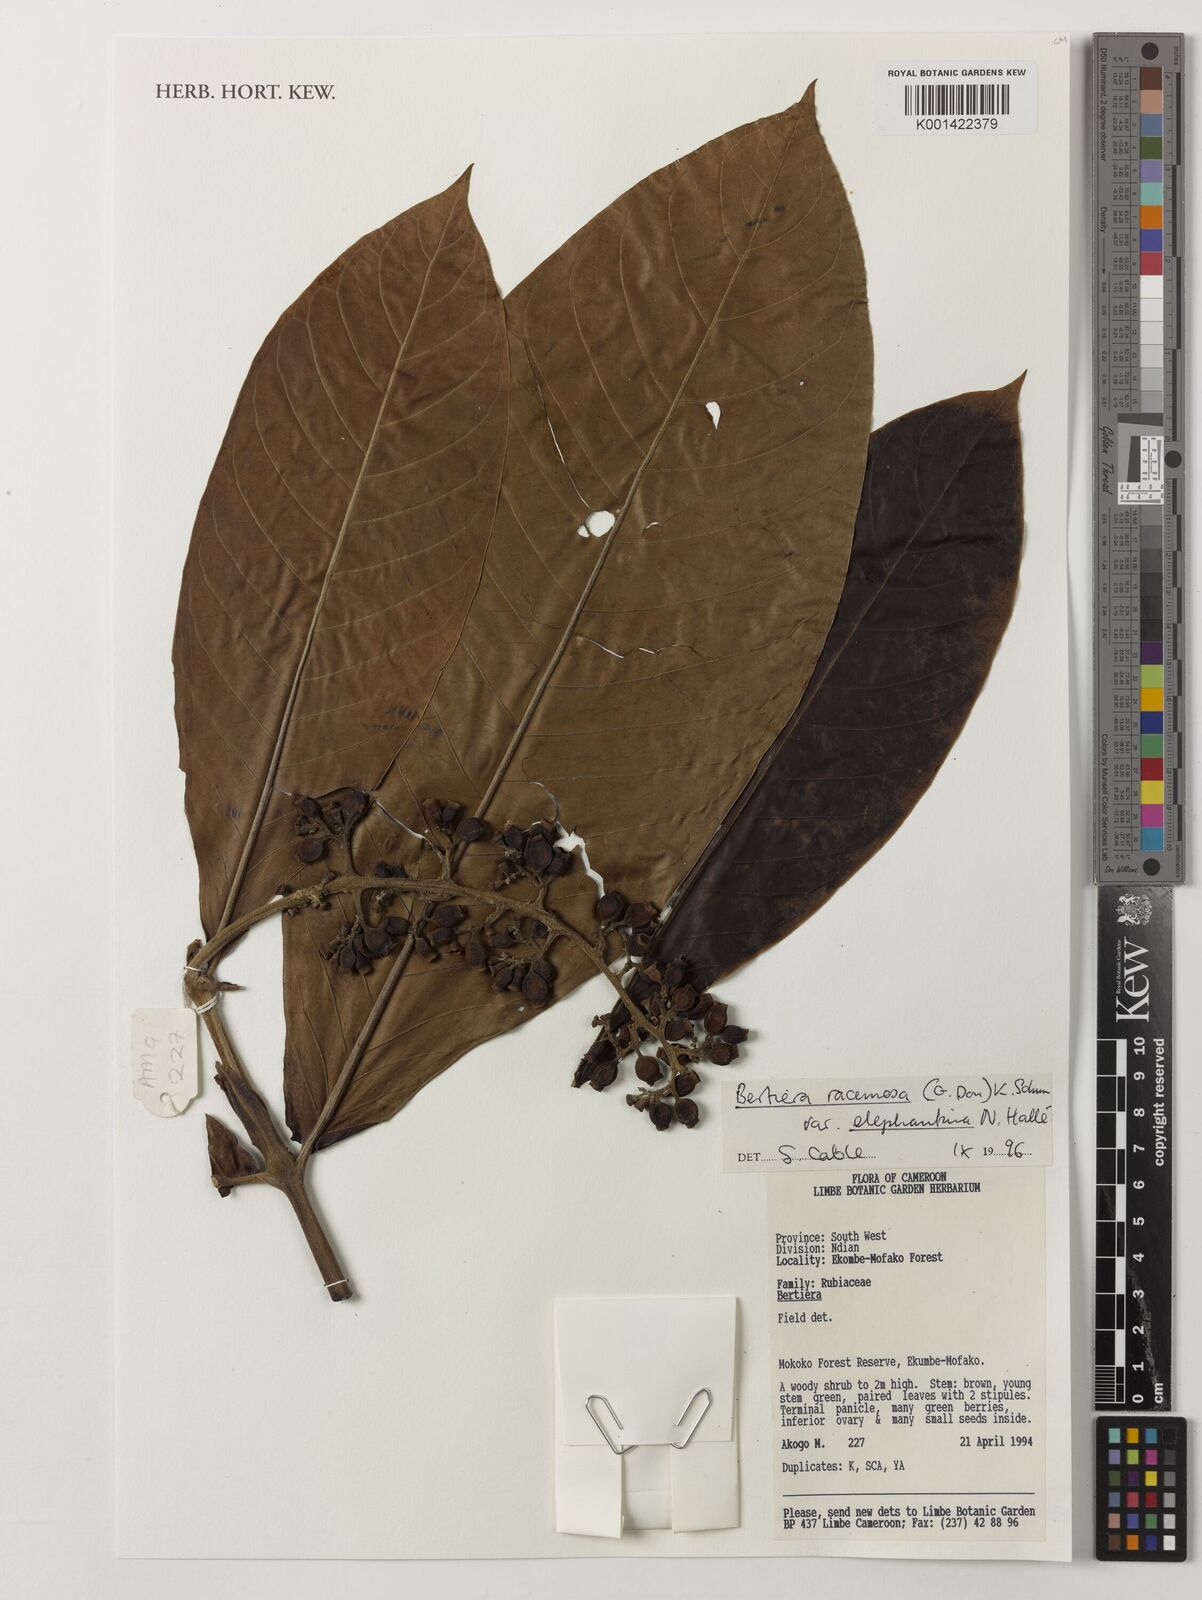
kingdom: Plantae
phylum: Tracheophyta
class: Magnoliopsida
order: Gentianales
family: Rubiaceae
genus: Bertiera
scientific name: Bertiera racemosa
